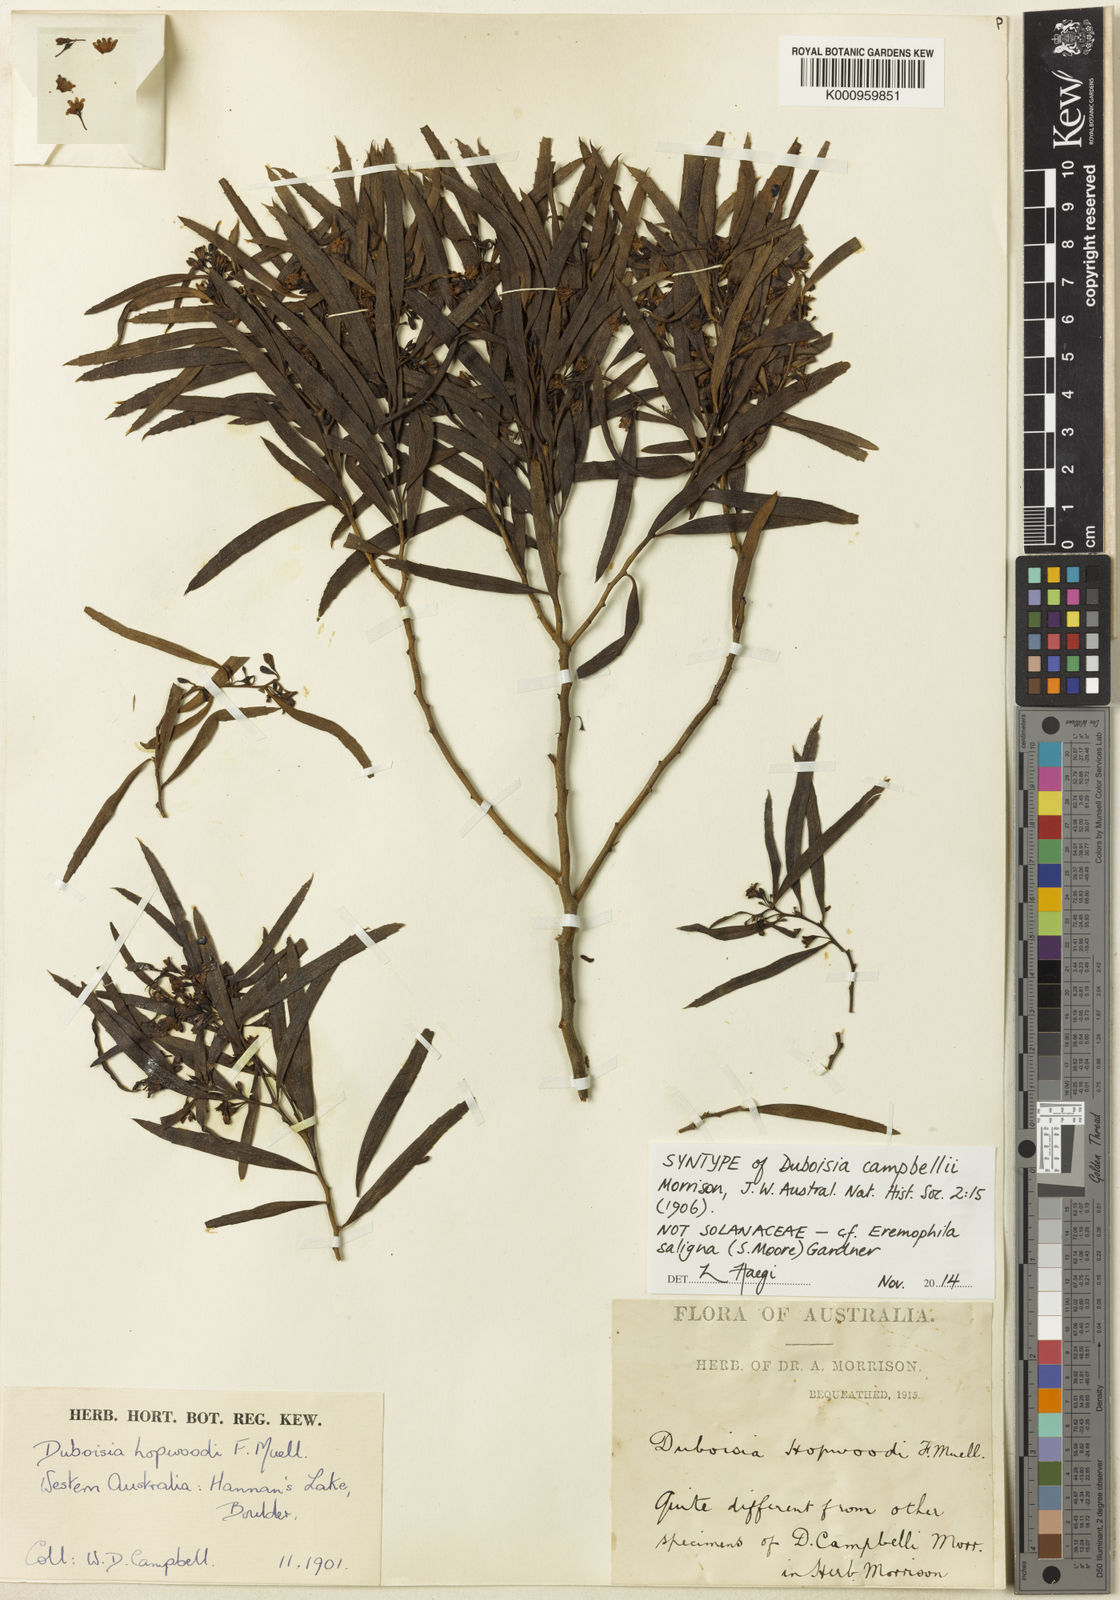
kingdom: Plantae
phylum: Tracheophyta
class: Magnoliopsida
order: Lamiales
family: Scrophulariaceae
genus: Eremophila
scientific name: Eremophila saligna
